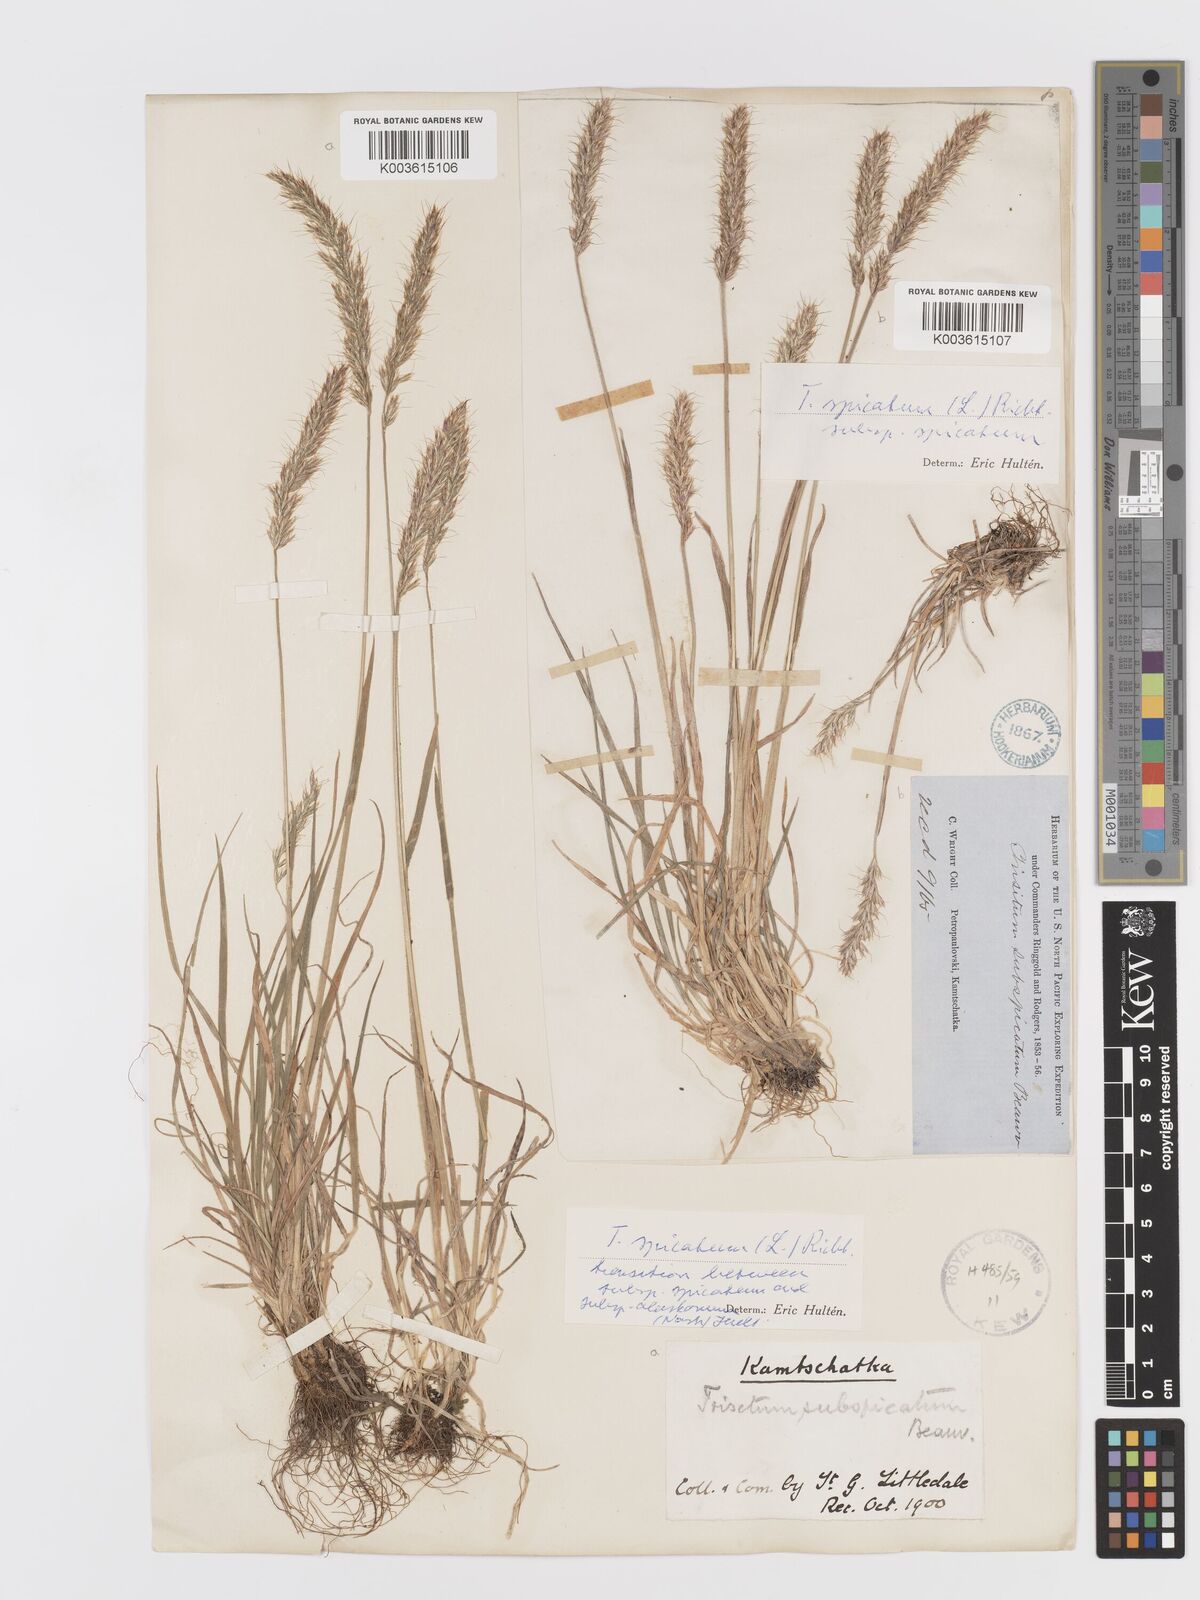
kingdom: Plantae
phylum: Tracheophyta
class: Liliopsida
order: Poales
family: Poaceae
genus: Koeleria
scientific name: Koeleria spicata
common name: Mountain trisetum
